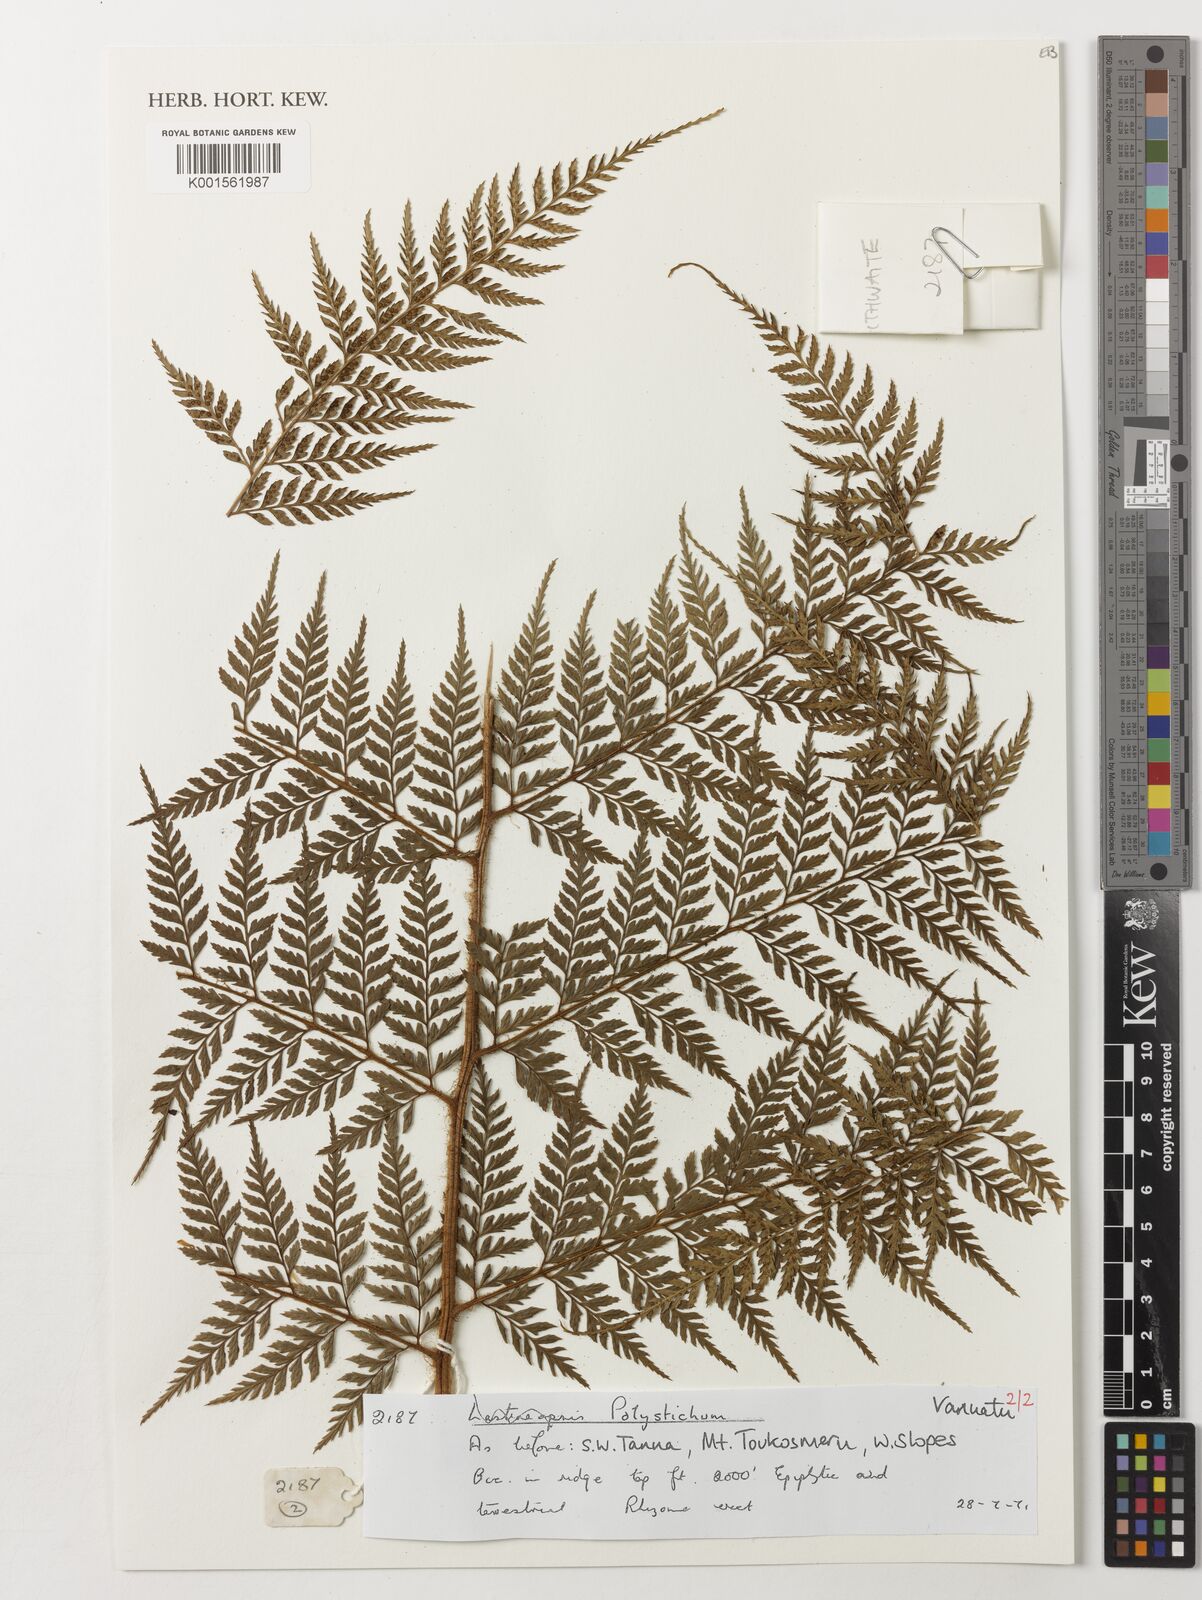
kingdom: Plantae
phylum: Tracheophyta
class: Polypodiopsida
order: Polypodiales
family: Dryopteridaceae
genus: Polystichum
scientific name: Polystichum
